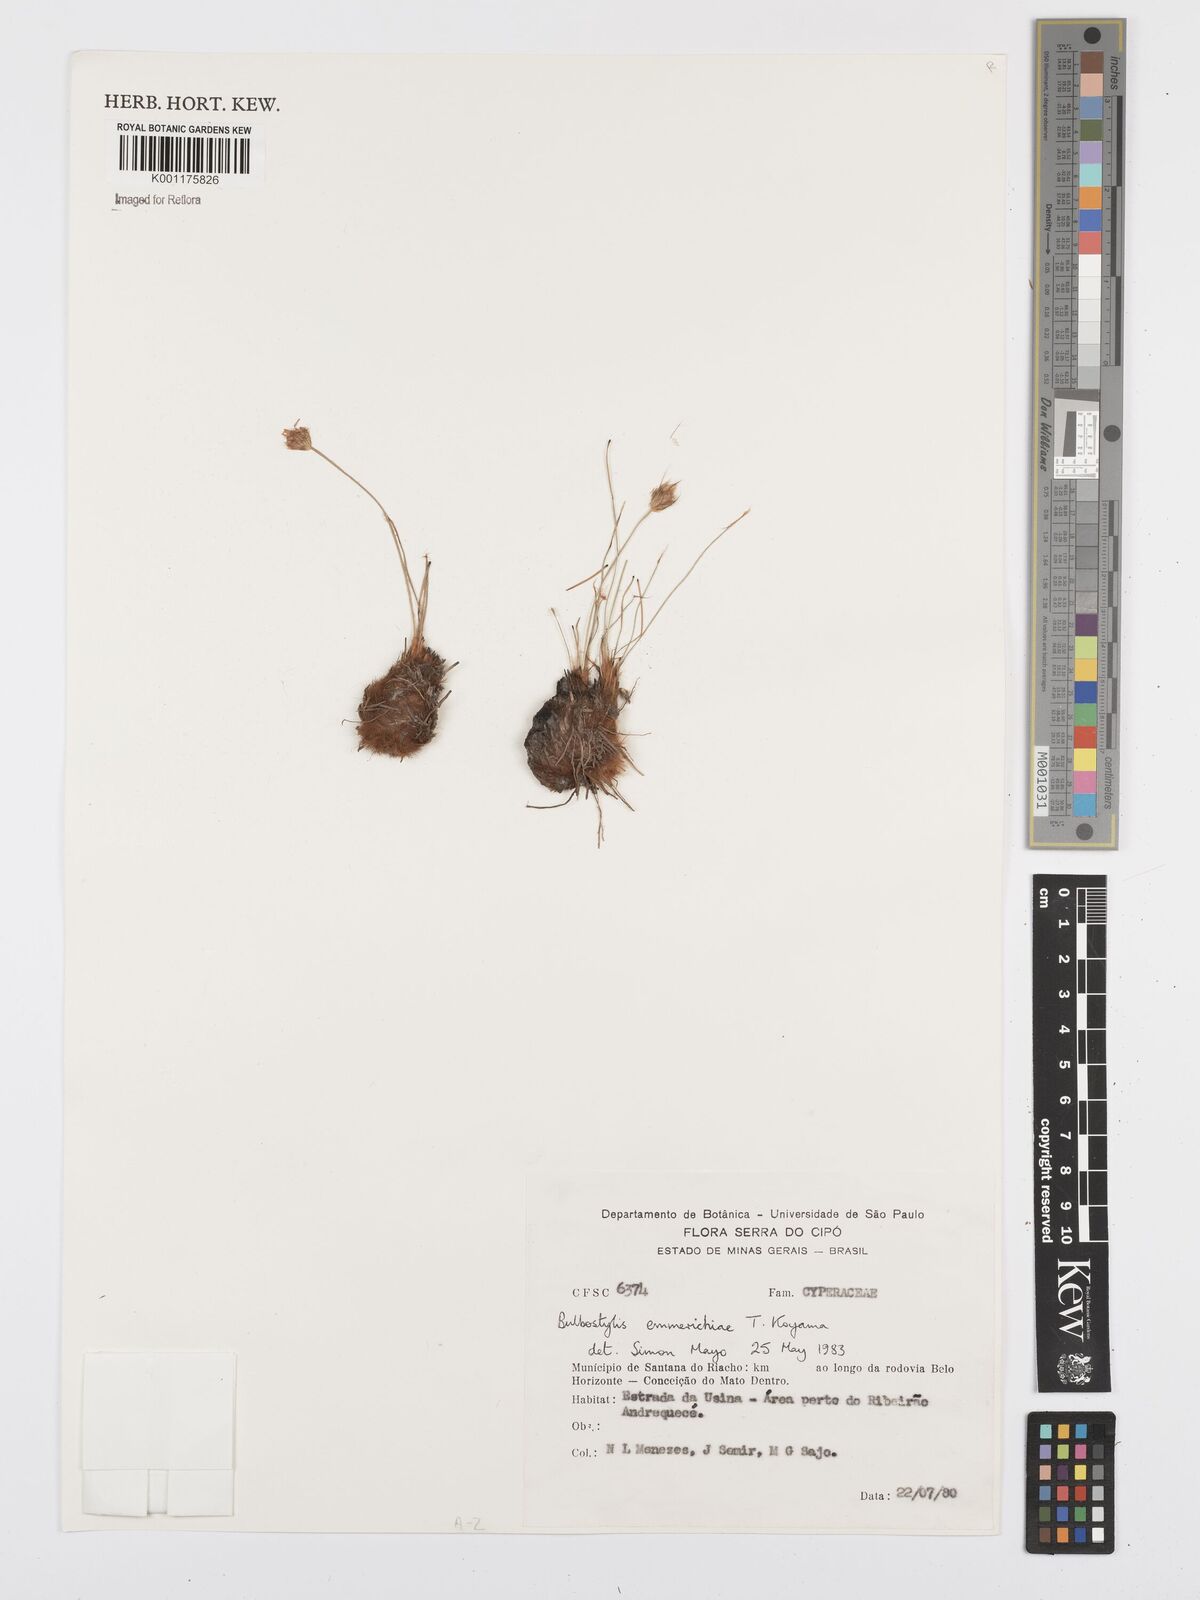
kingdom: Plantae
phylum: Tracheophyta
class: Liliopsida
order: Poales
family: Cyperaceae
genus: Bulbostylis
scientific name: Bulbostylis emmerichiae
